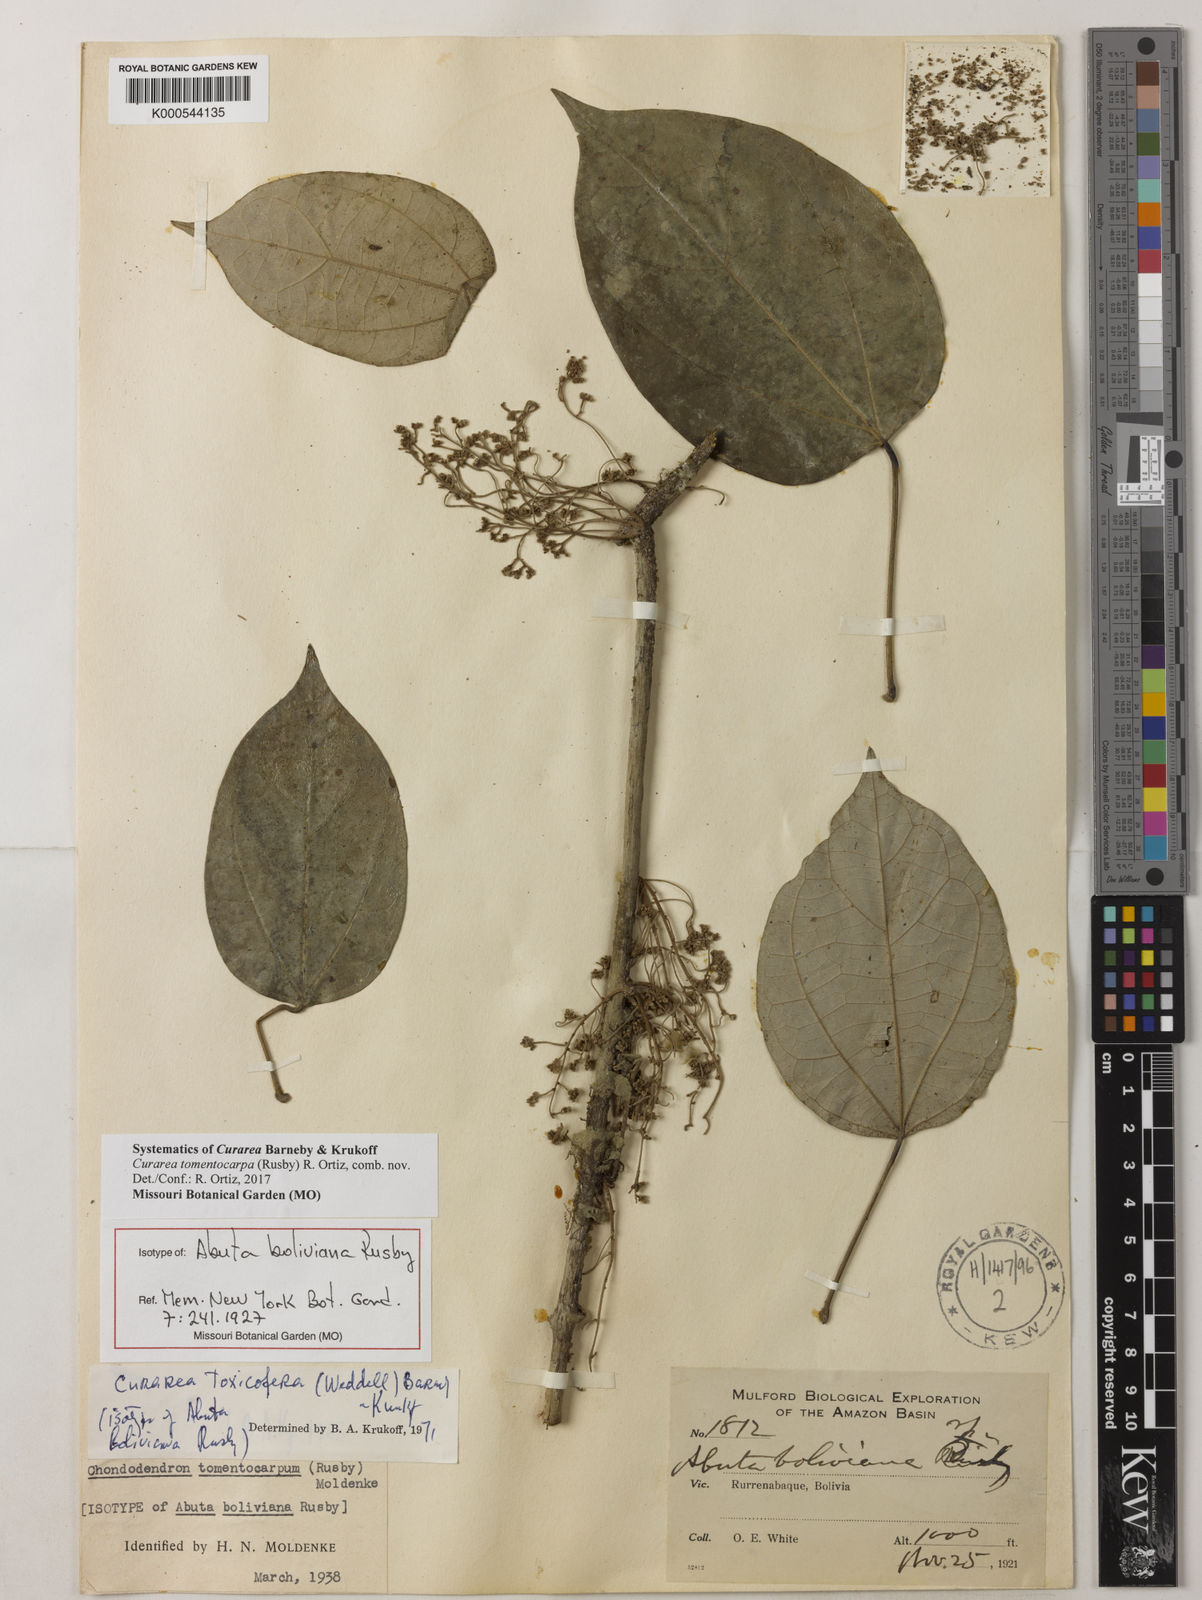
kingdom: Plantae
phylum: Tracheophyta
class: Magnoliopsida
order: Ranunculales
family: Menispermaceae
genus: Curarea
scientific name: Curarea tomentocarpa
